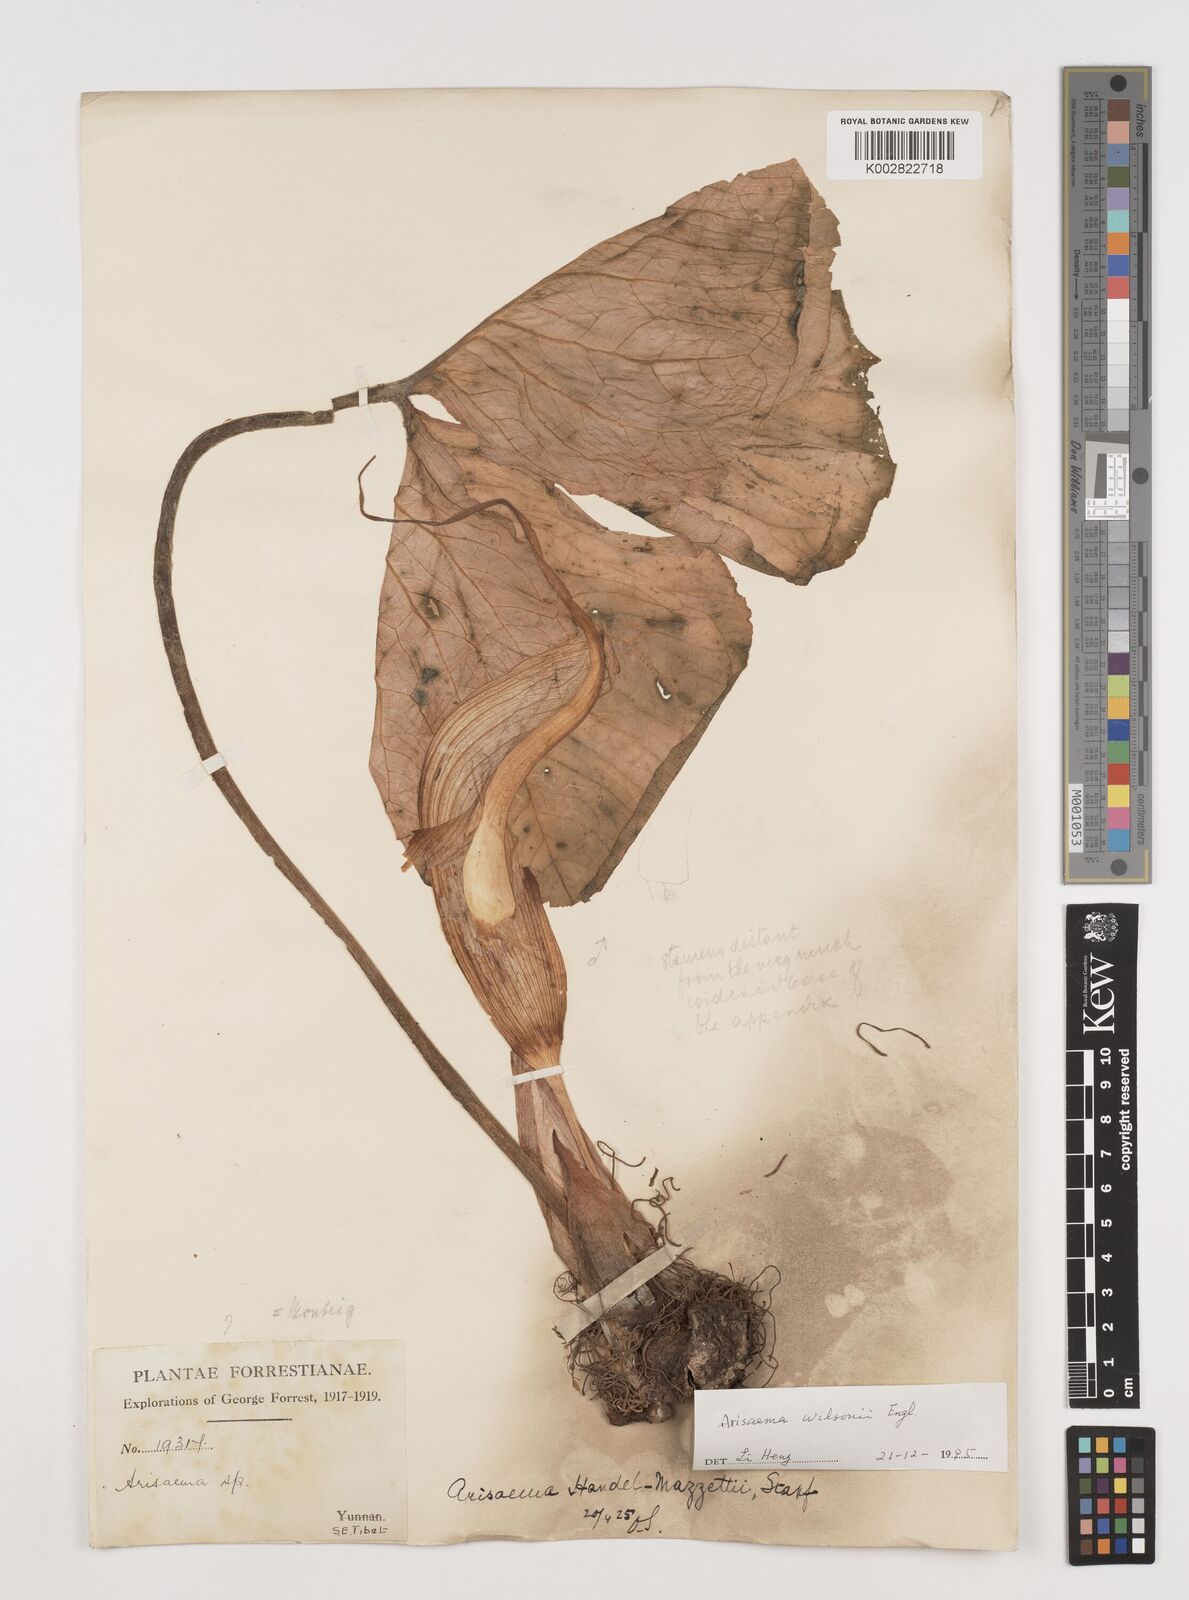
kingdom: Plantae
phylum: Tracheophyta
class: Liliopsida
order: Alismatales
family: Araceae
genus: Arisaema
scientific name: Arisaema wilsonii
